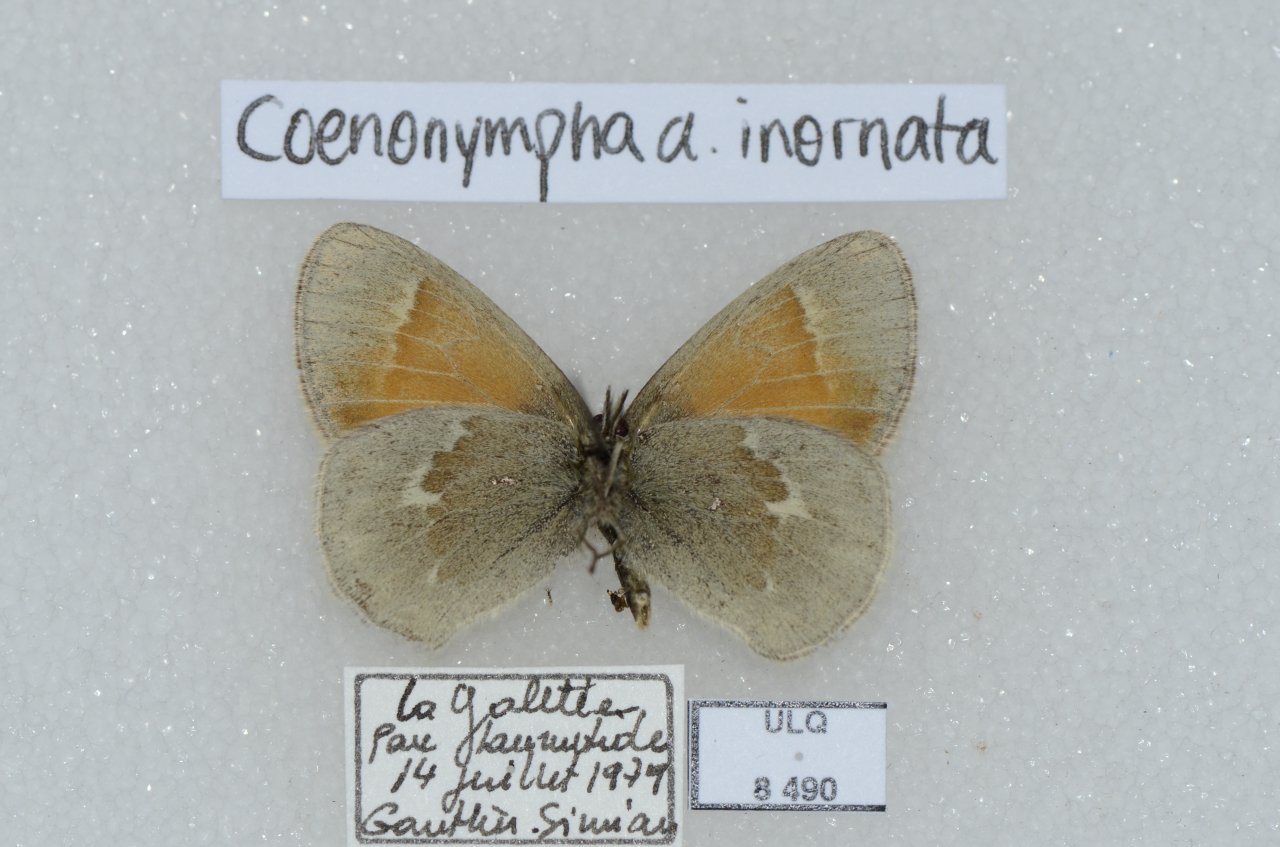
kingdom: Animalia
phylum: Arthropoda
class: Insecta
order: Lepidoptera
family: Nymphalidae
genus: Coenonympha
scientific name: Coenonympha tullia
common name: Large Heath
